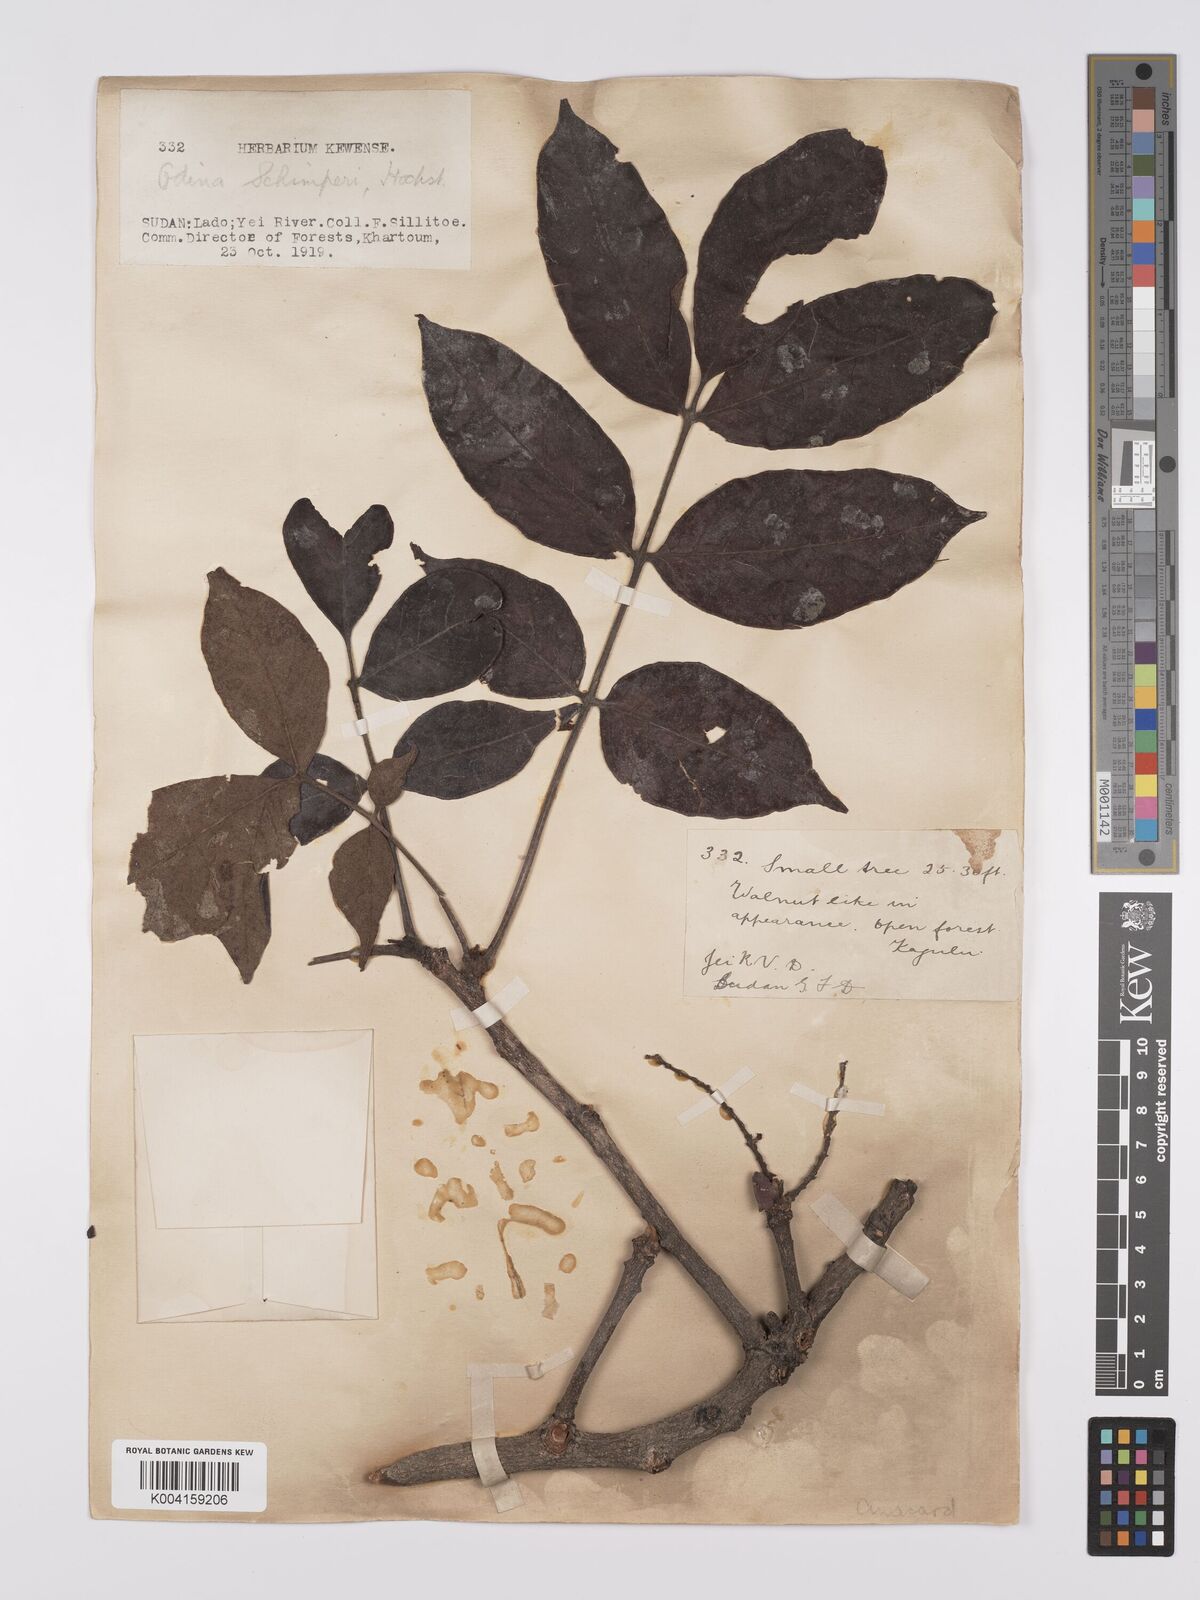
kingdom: Plantae
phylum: Tracheophyta
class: Magnoliopsida
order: Sapindales
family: Anacardiaceae
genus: Lannea
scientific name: Lannea schimperi
